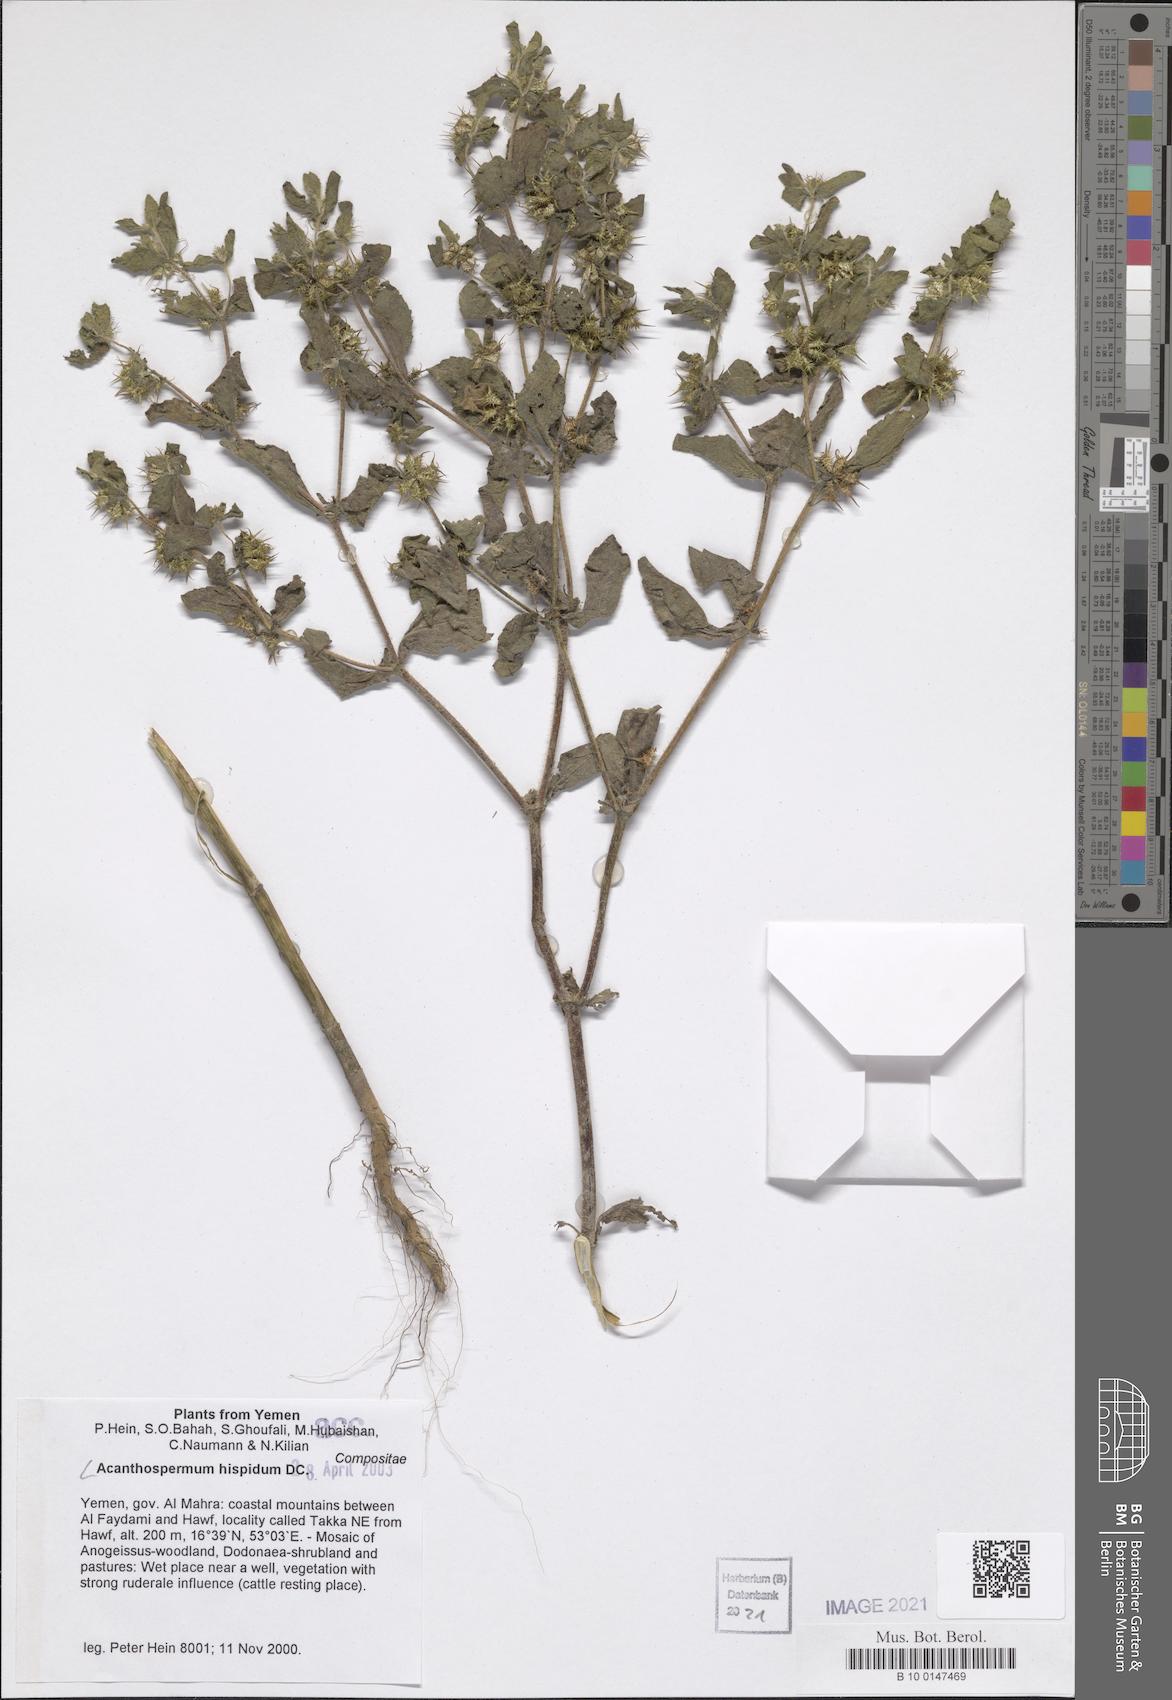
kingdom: Plantae
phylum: Tracheophyta
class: Magnoliopsida
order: Asterales
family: Asteraceae
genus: Acanthospermum
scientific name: Acanthospermum hispidum
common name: Hispid starbur
